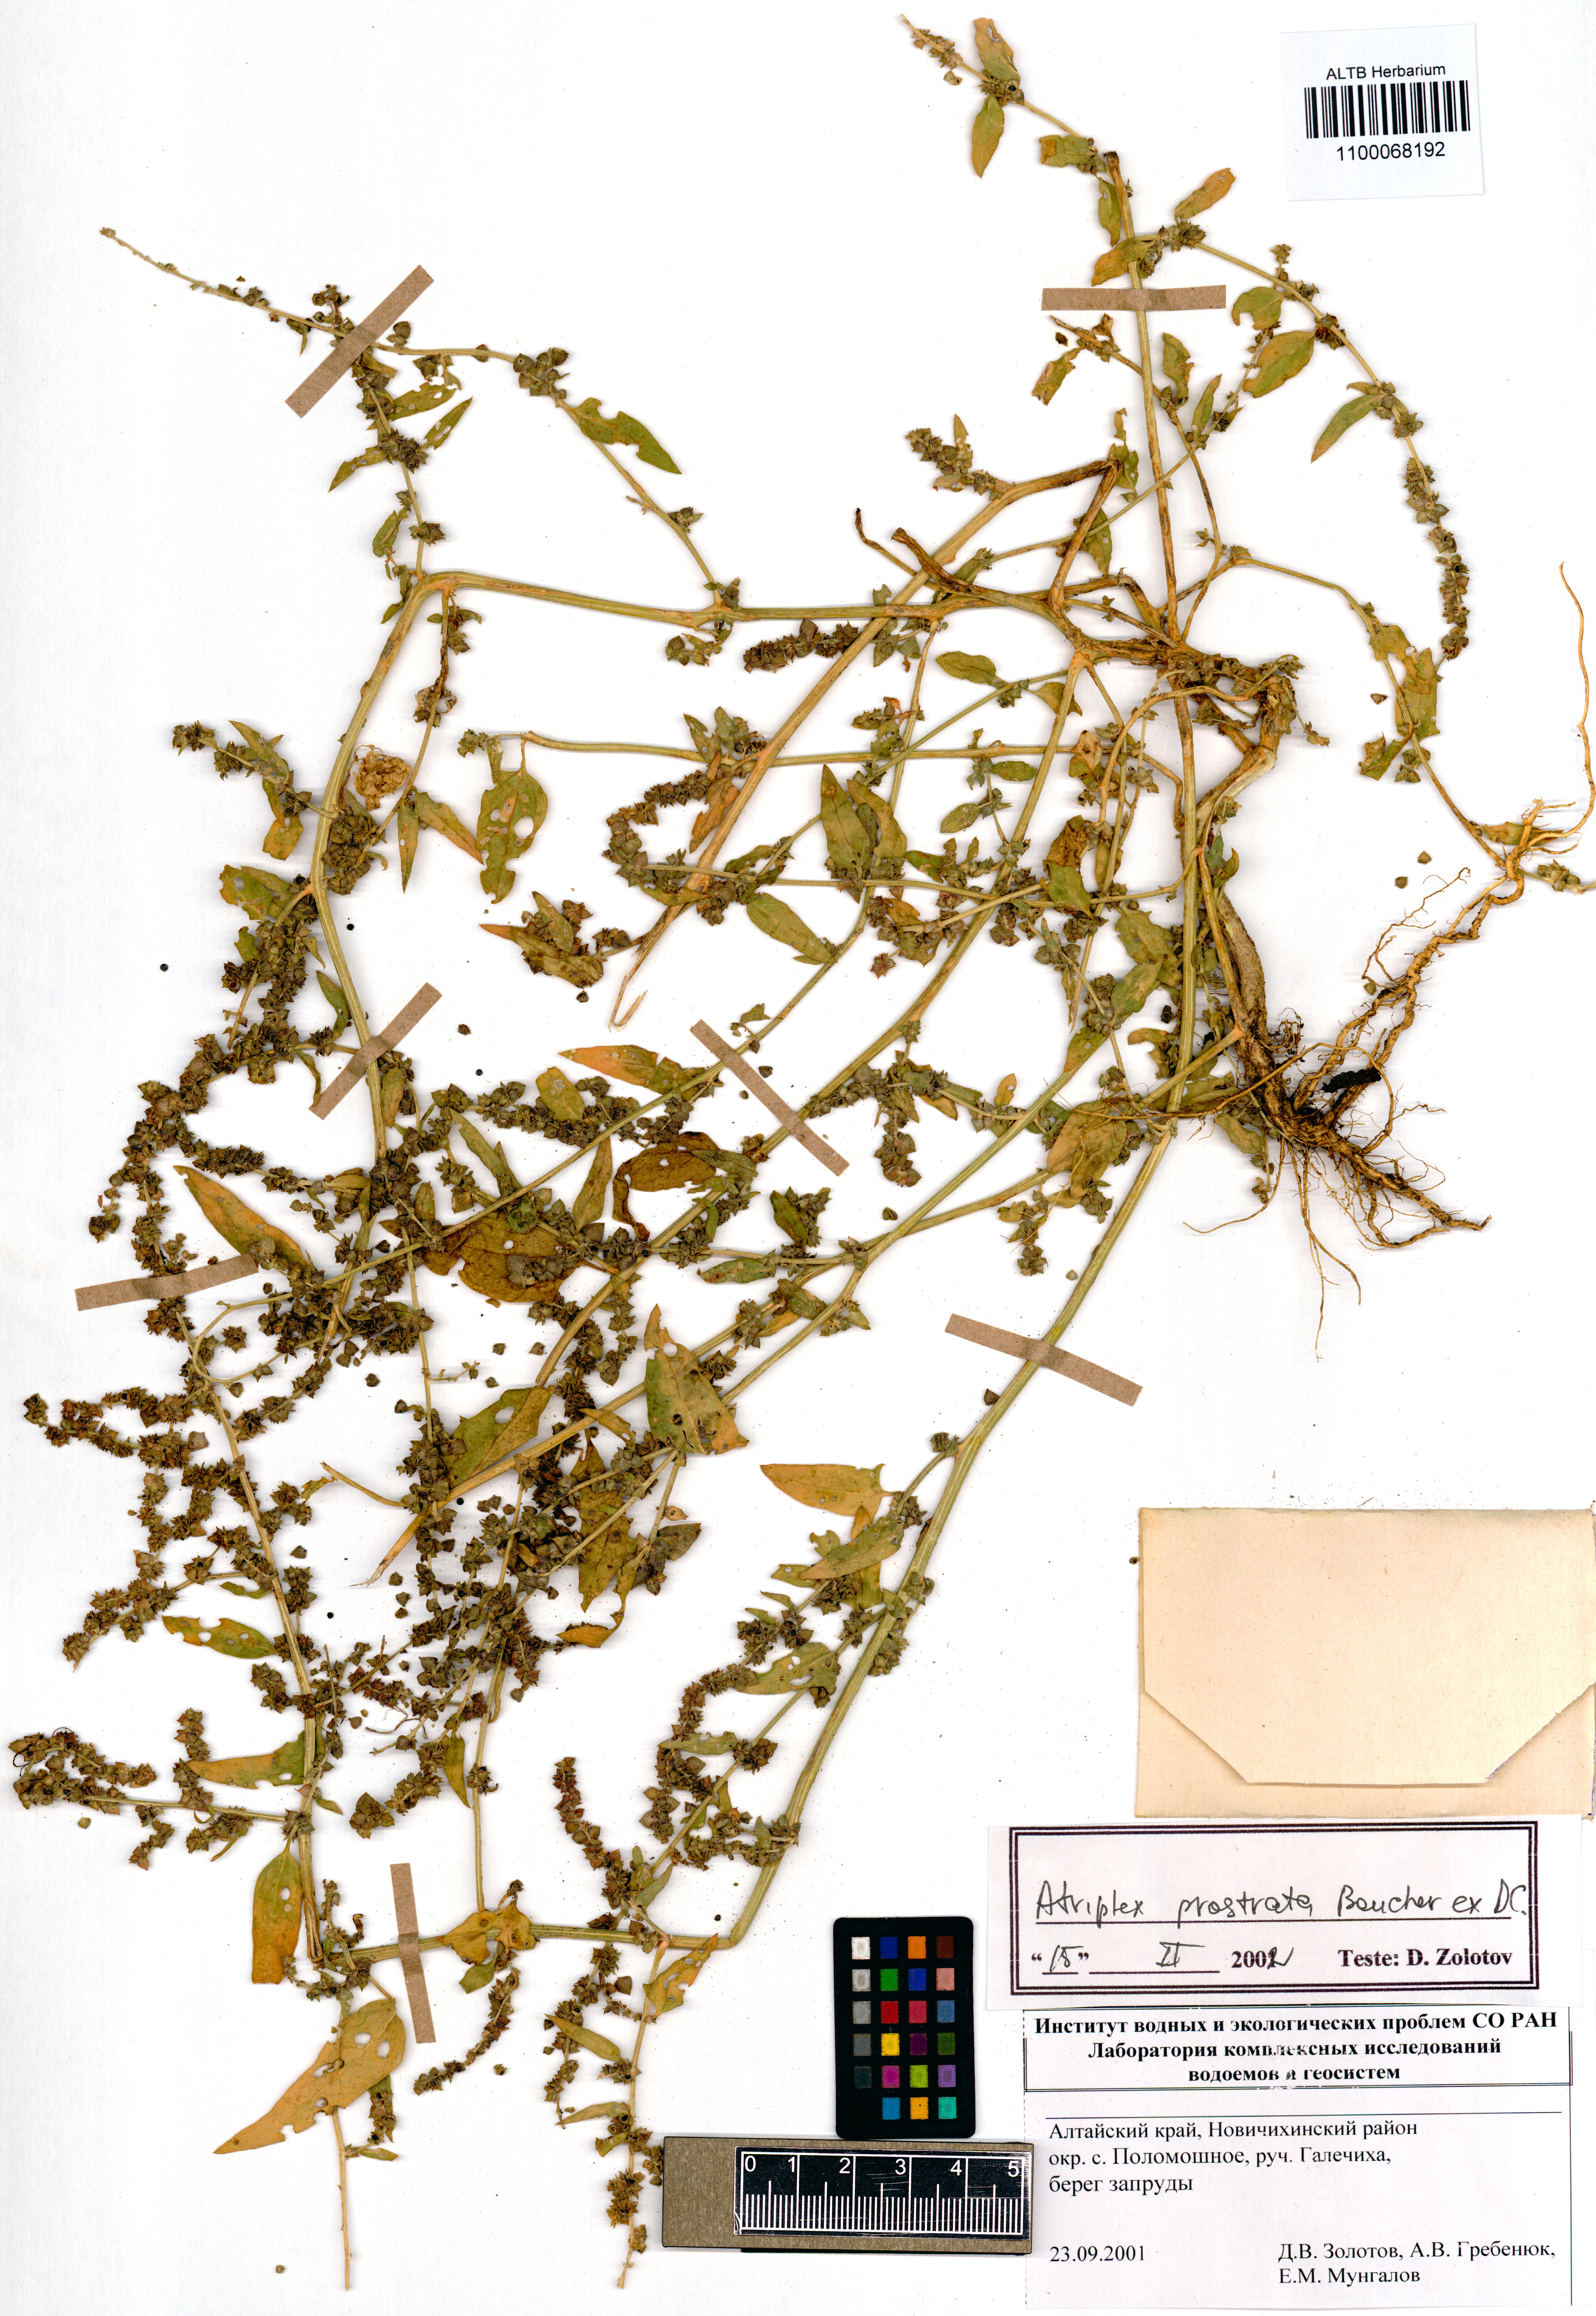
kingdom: Plantae
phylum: Tracheophyta
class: Magnoliopsida
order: Caryophyllales
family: Amaranthaceae
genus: Atriplex
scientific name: Atriplex prostrata
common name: Spear-leaved orache
